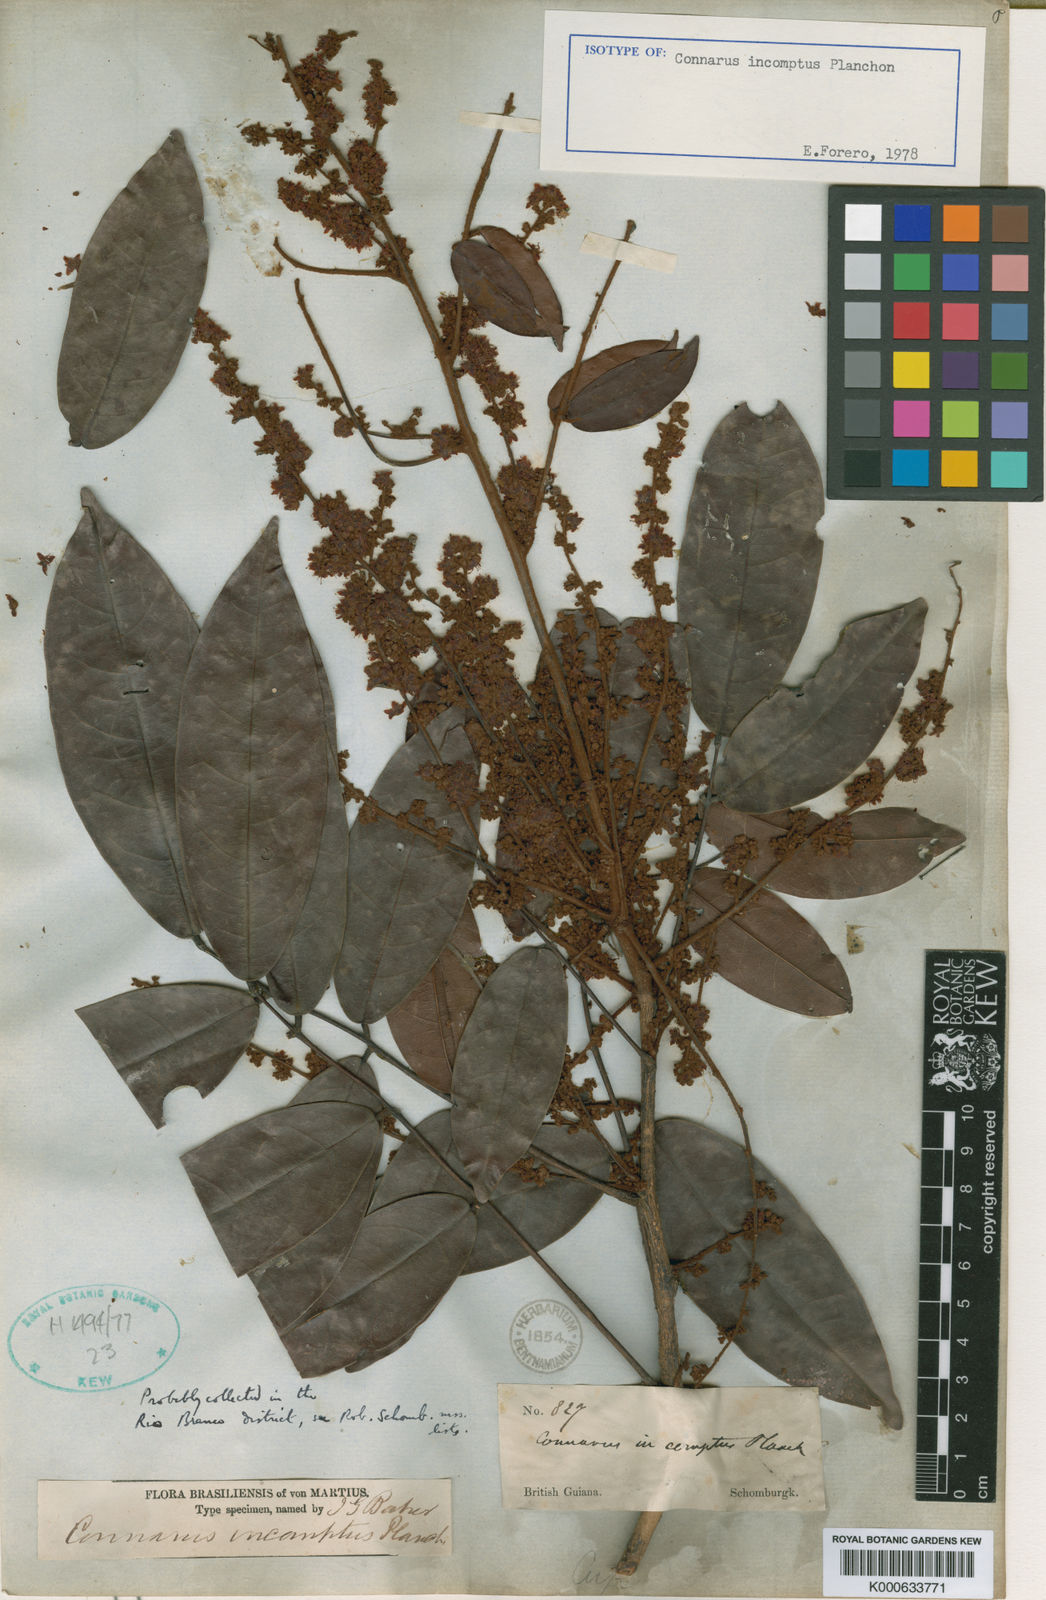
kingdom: Plantae
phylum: Tracheophyta
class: Magnoliopsida
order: Oxalidales
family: Connaraceae
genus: Connarus
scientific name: Connarus incomptus
